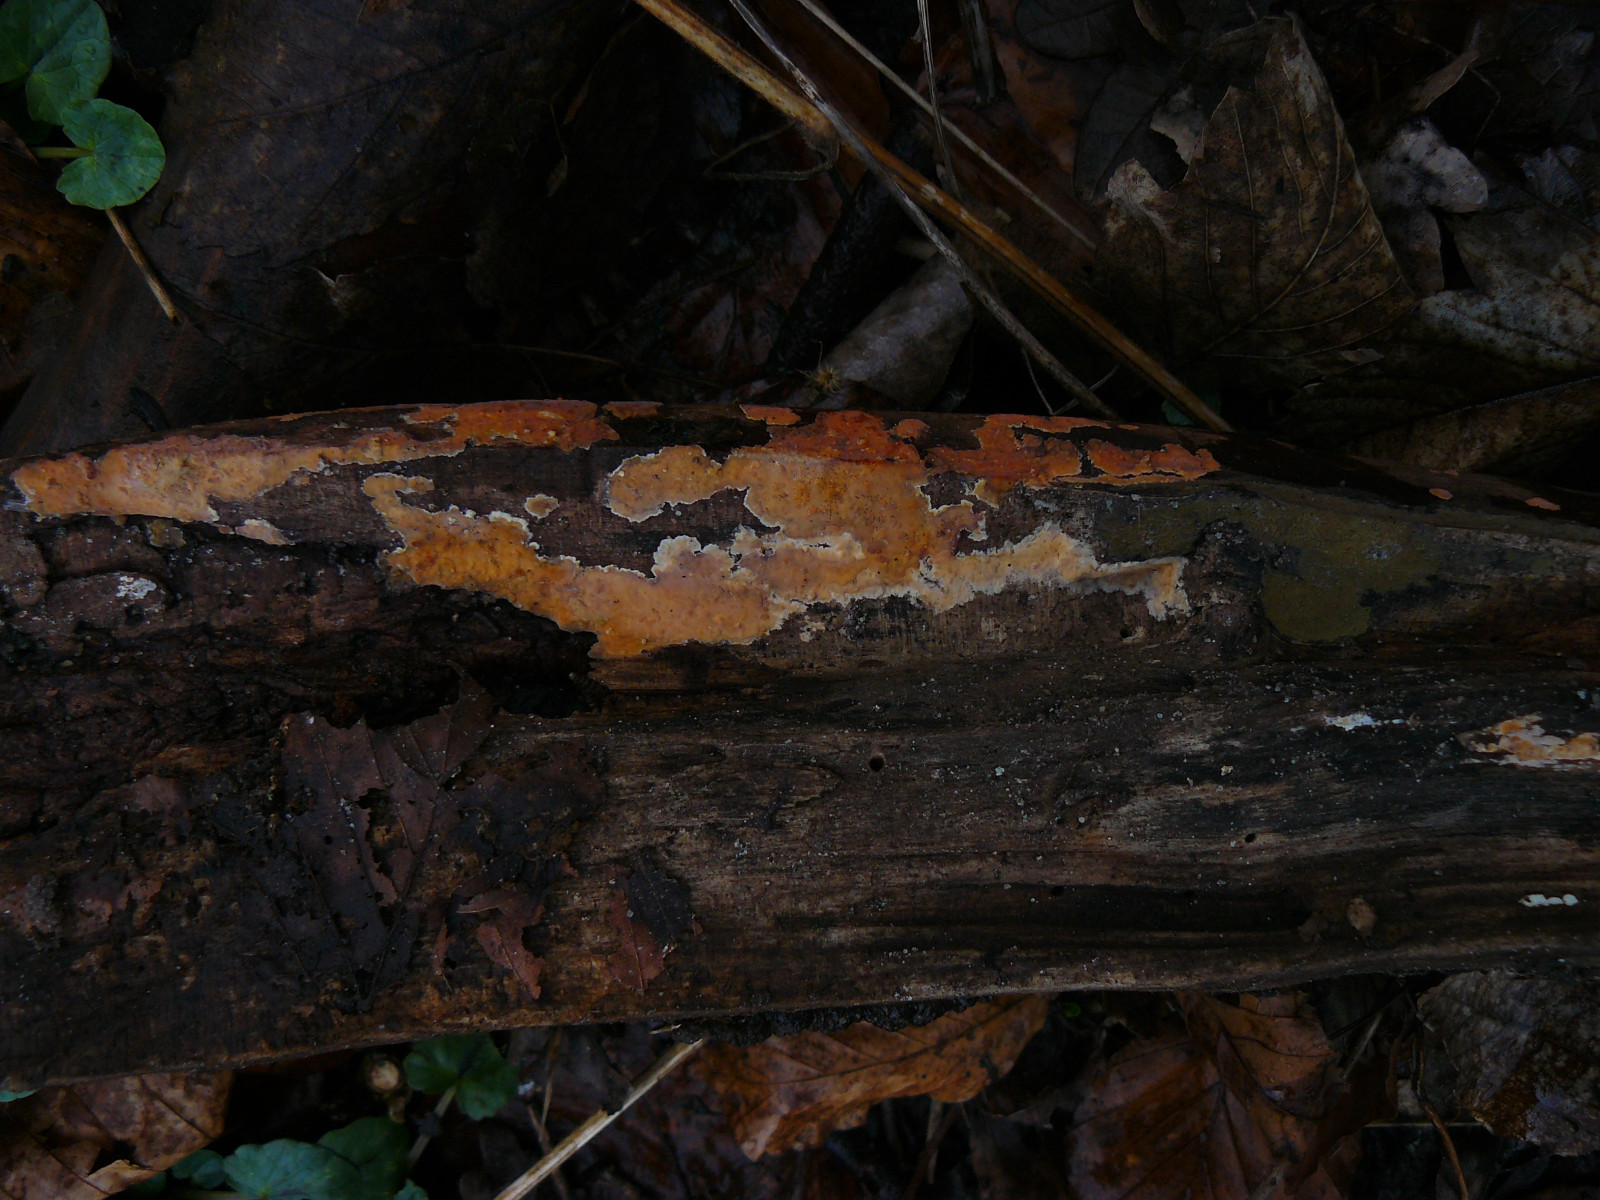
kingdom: Fungi
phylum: Basidiomycota
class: Agaricomycetes
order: Russulales
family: Peniophoraceae
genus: Peniophora
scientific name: Peniophora incarnata
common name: laksefarvet voksskind
